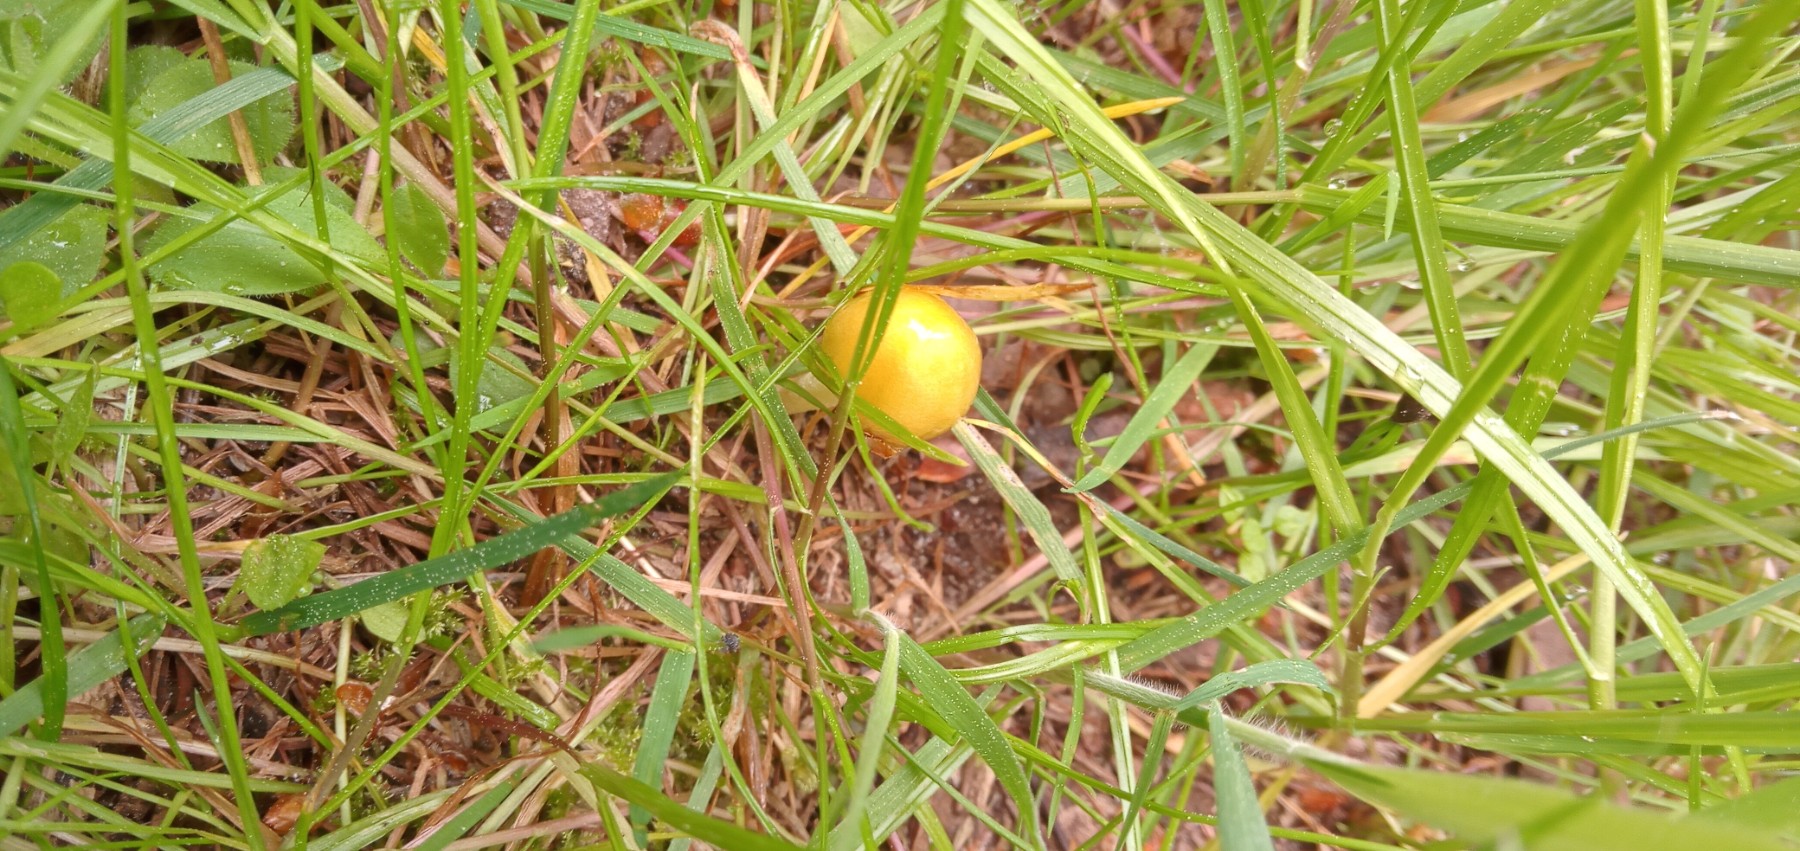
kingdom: Fungi
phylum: Basidiomycota
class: Agaricomycetes
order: Agaricales
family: Bolbitiaceae
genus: Bolbitius
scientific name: Bolbitius titubans
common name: almindelig gulhat
